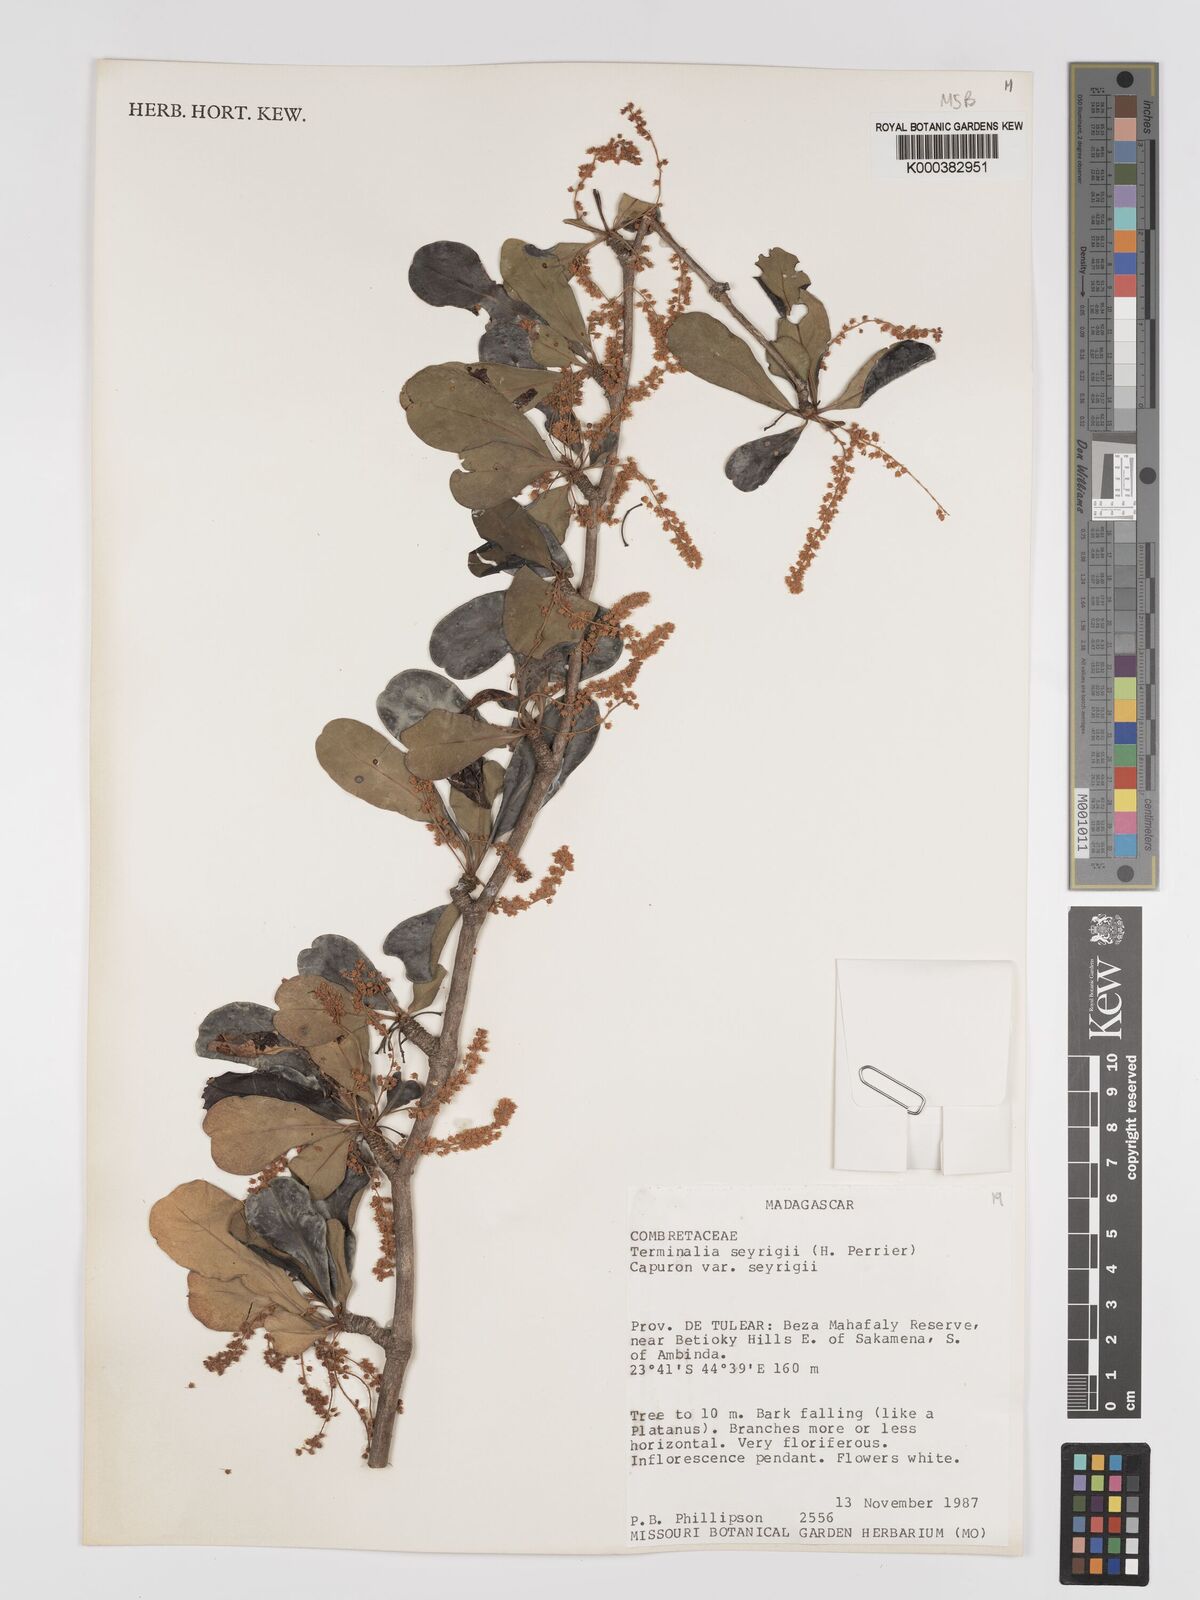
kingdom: Plantae
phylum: Tracheophyta
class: Magnoliopsida
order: Myrtales
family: Combretaceae
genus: Terminalia
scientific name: Terminalia
